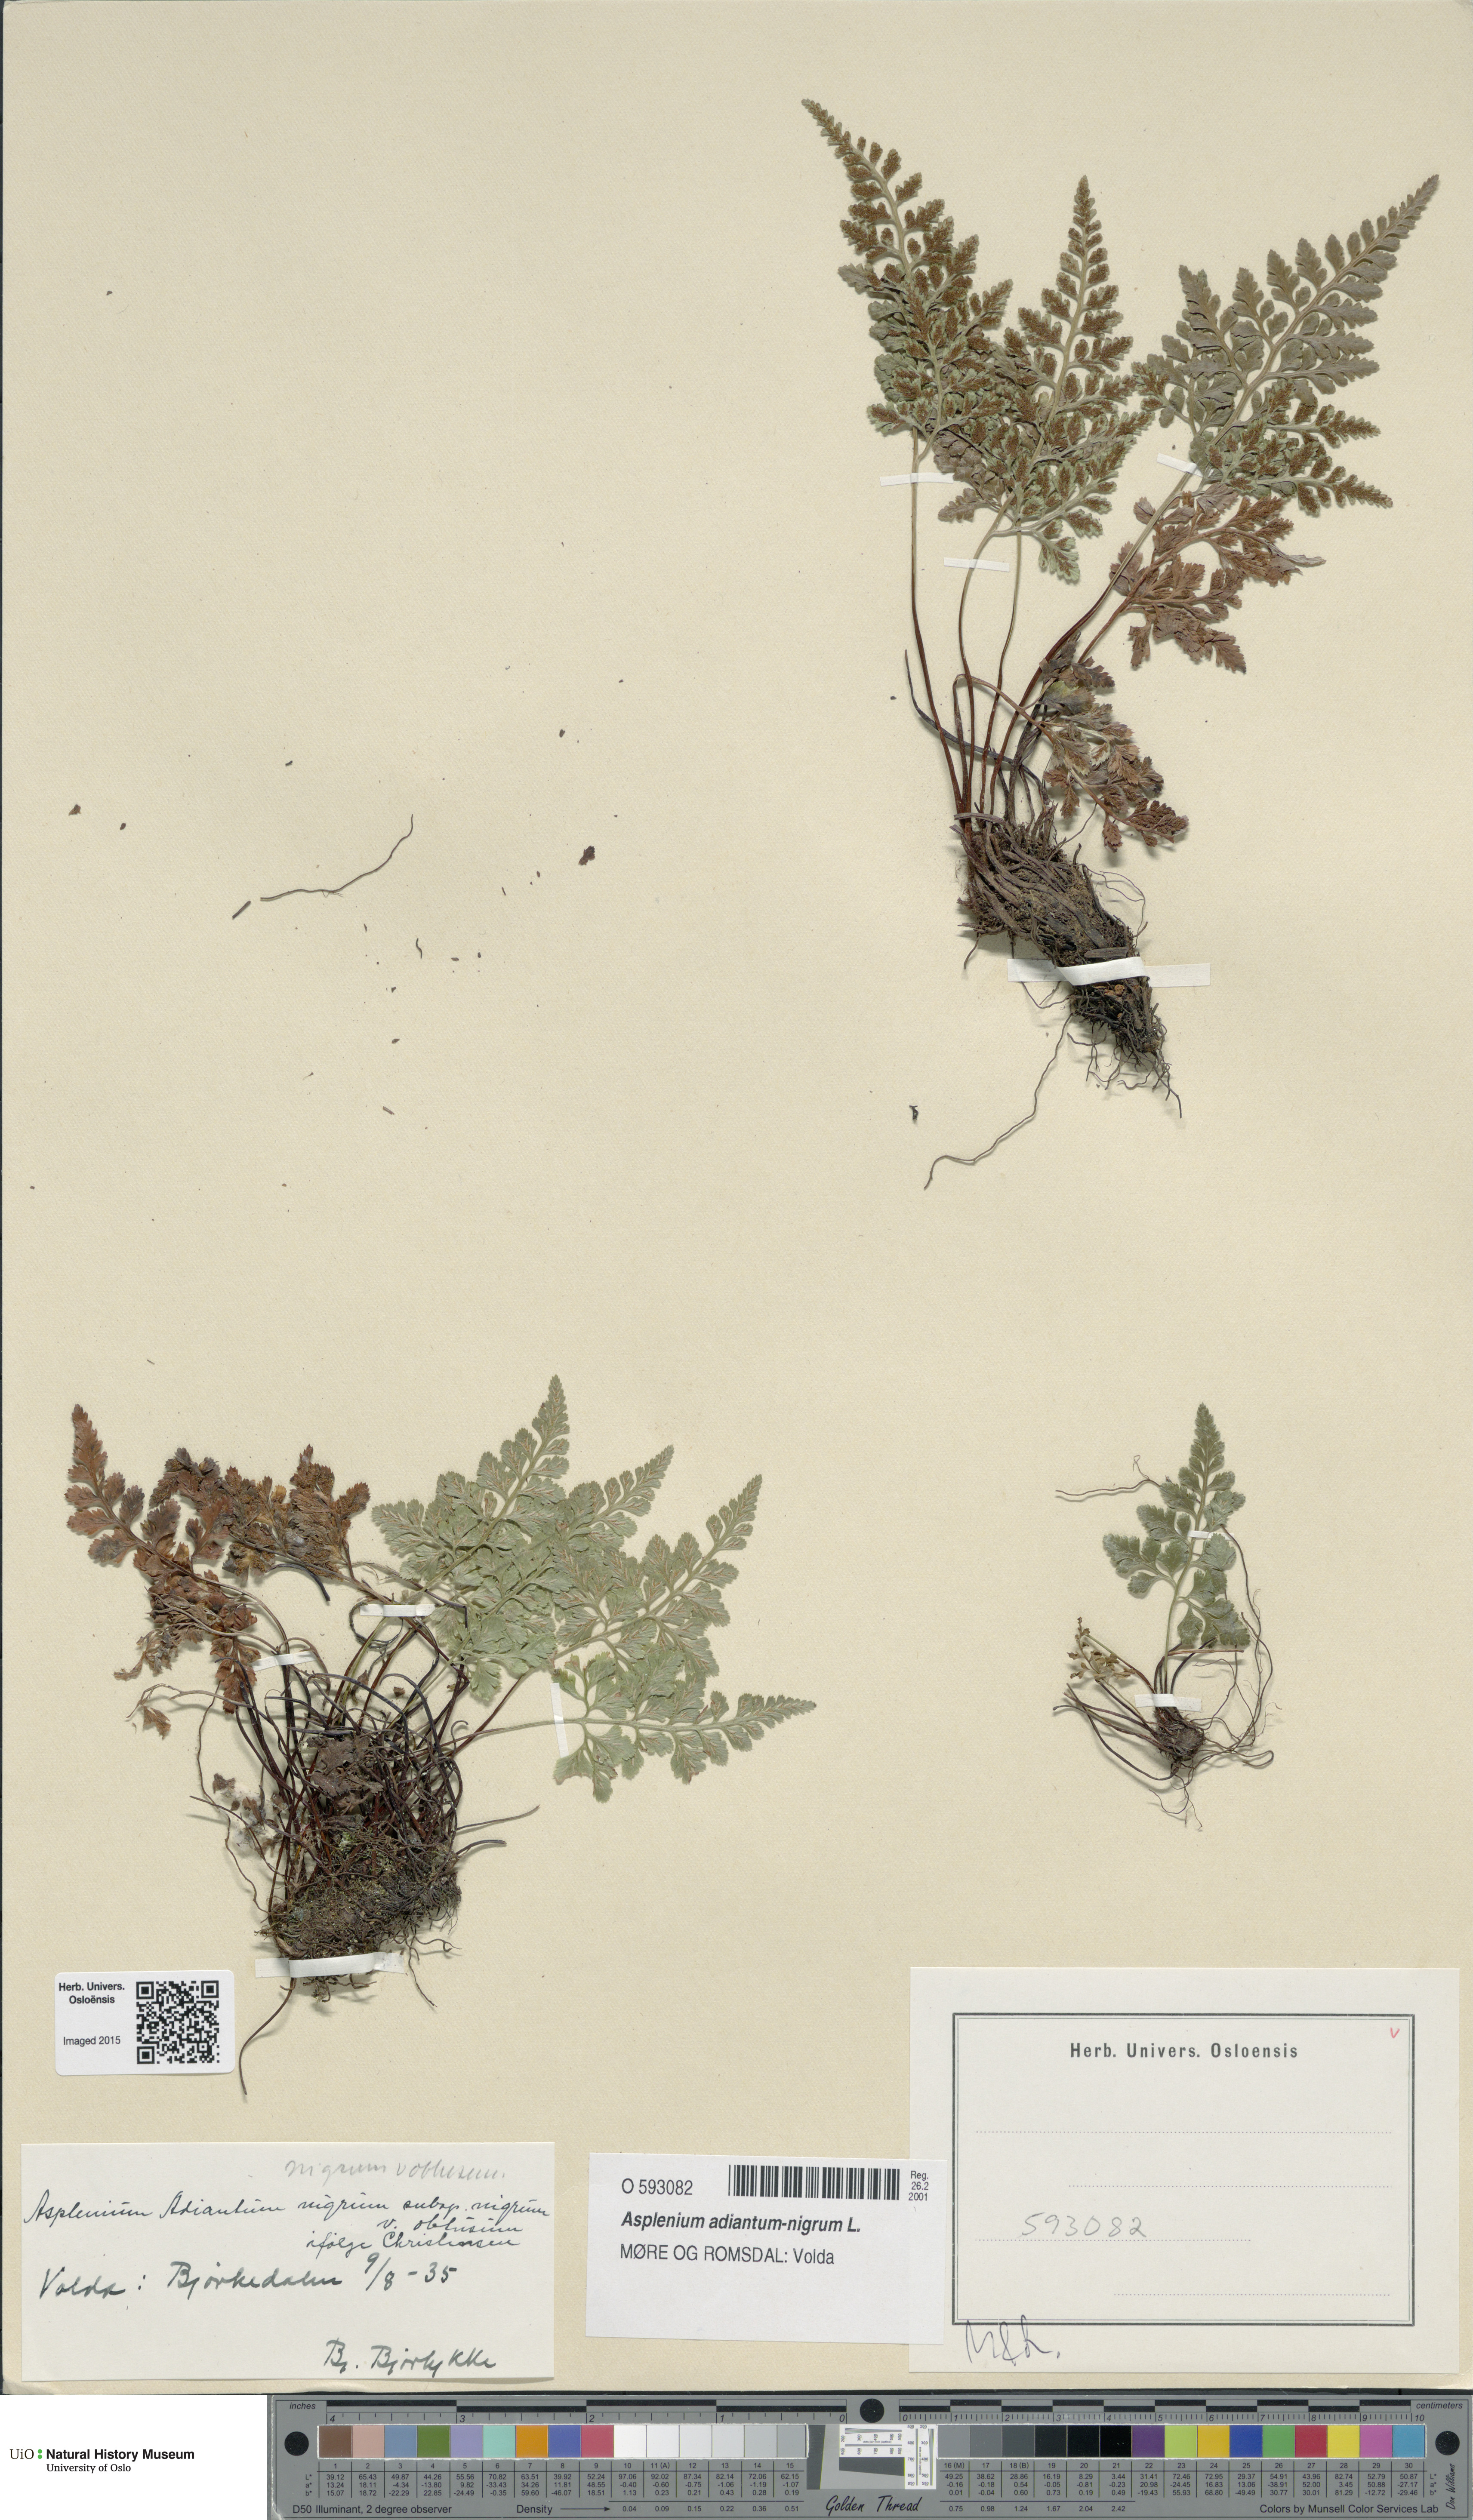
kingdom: Plantae
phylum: Tracheophyta
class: Polypodiopsida
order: Polypodiales
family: Aspleniaceae
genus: Asplenium
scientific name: Asplenium adiantum-nigrum
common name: Black spleenwort
